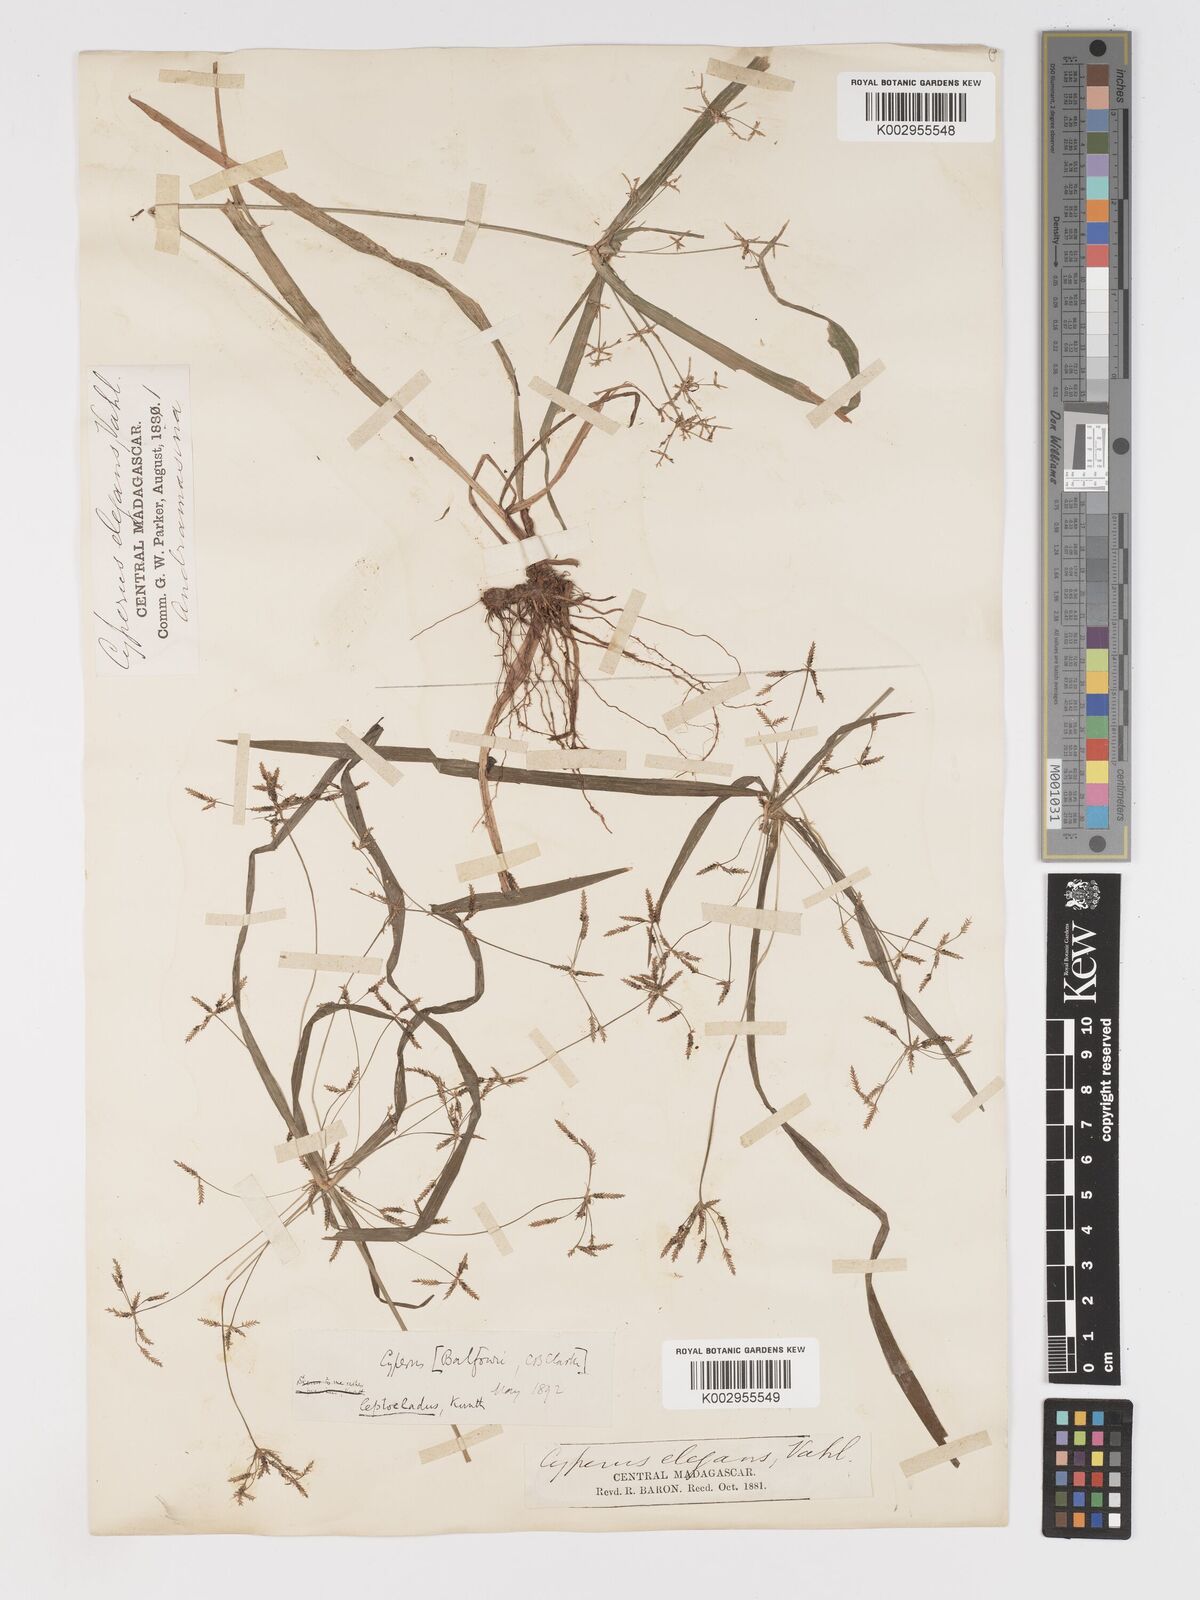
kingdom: Plantae
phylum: Tracheophyta
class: Liliopsida
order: Poales
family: Cyperaceae
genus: Cyperus
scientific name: Cyperus longifolius
